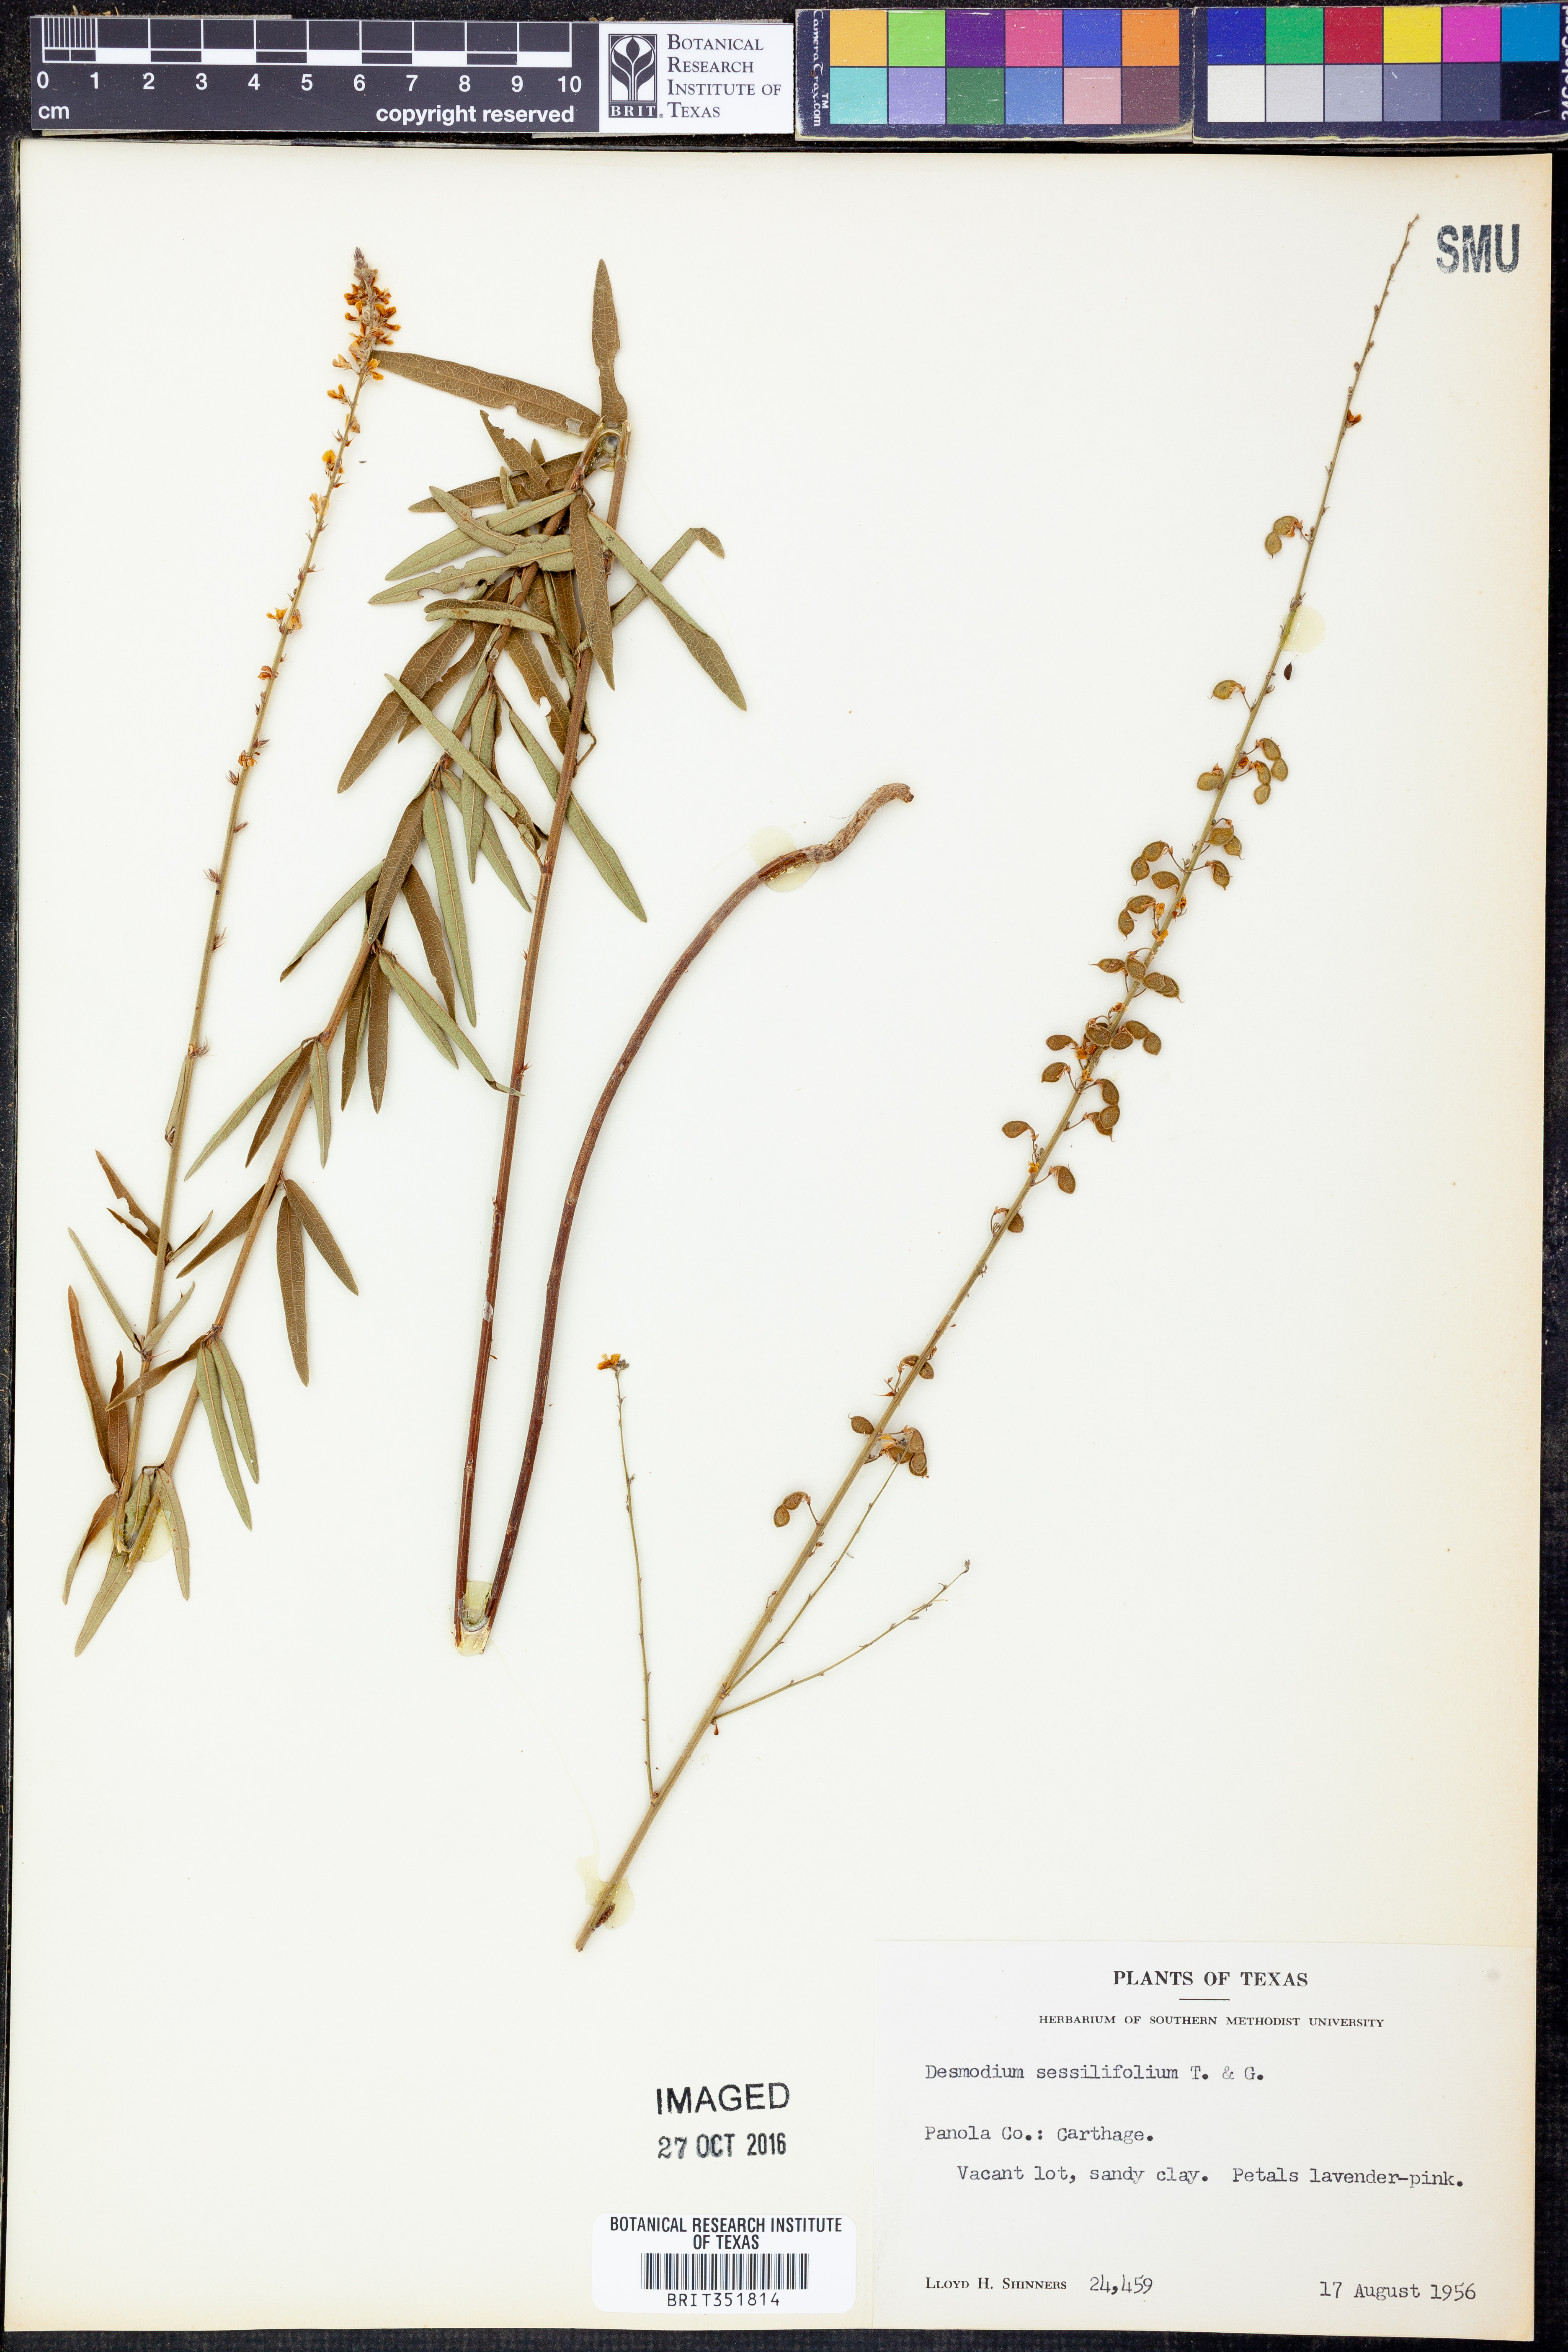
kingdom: Plantae
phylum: Tracheophyta
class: Magnoliopsida
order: Fabales
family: Fabaceae
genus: Desmodium
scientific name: Desmodium sessilifolium
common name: Sessile tick-clover
